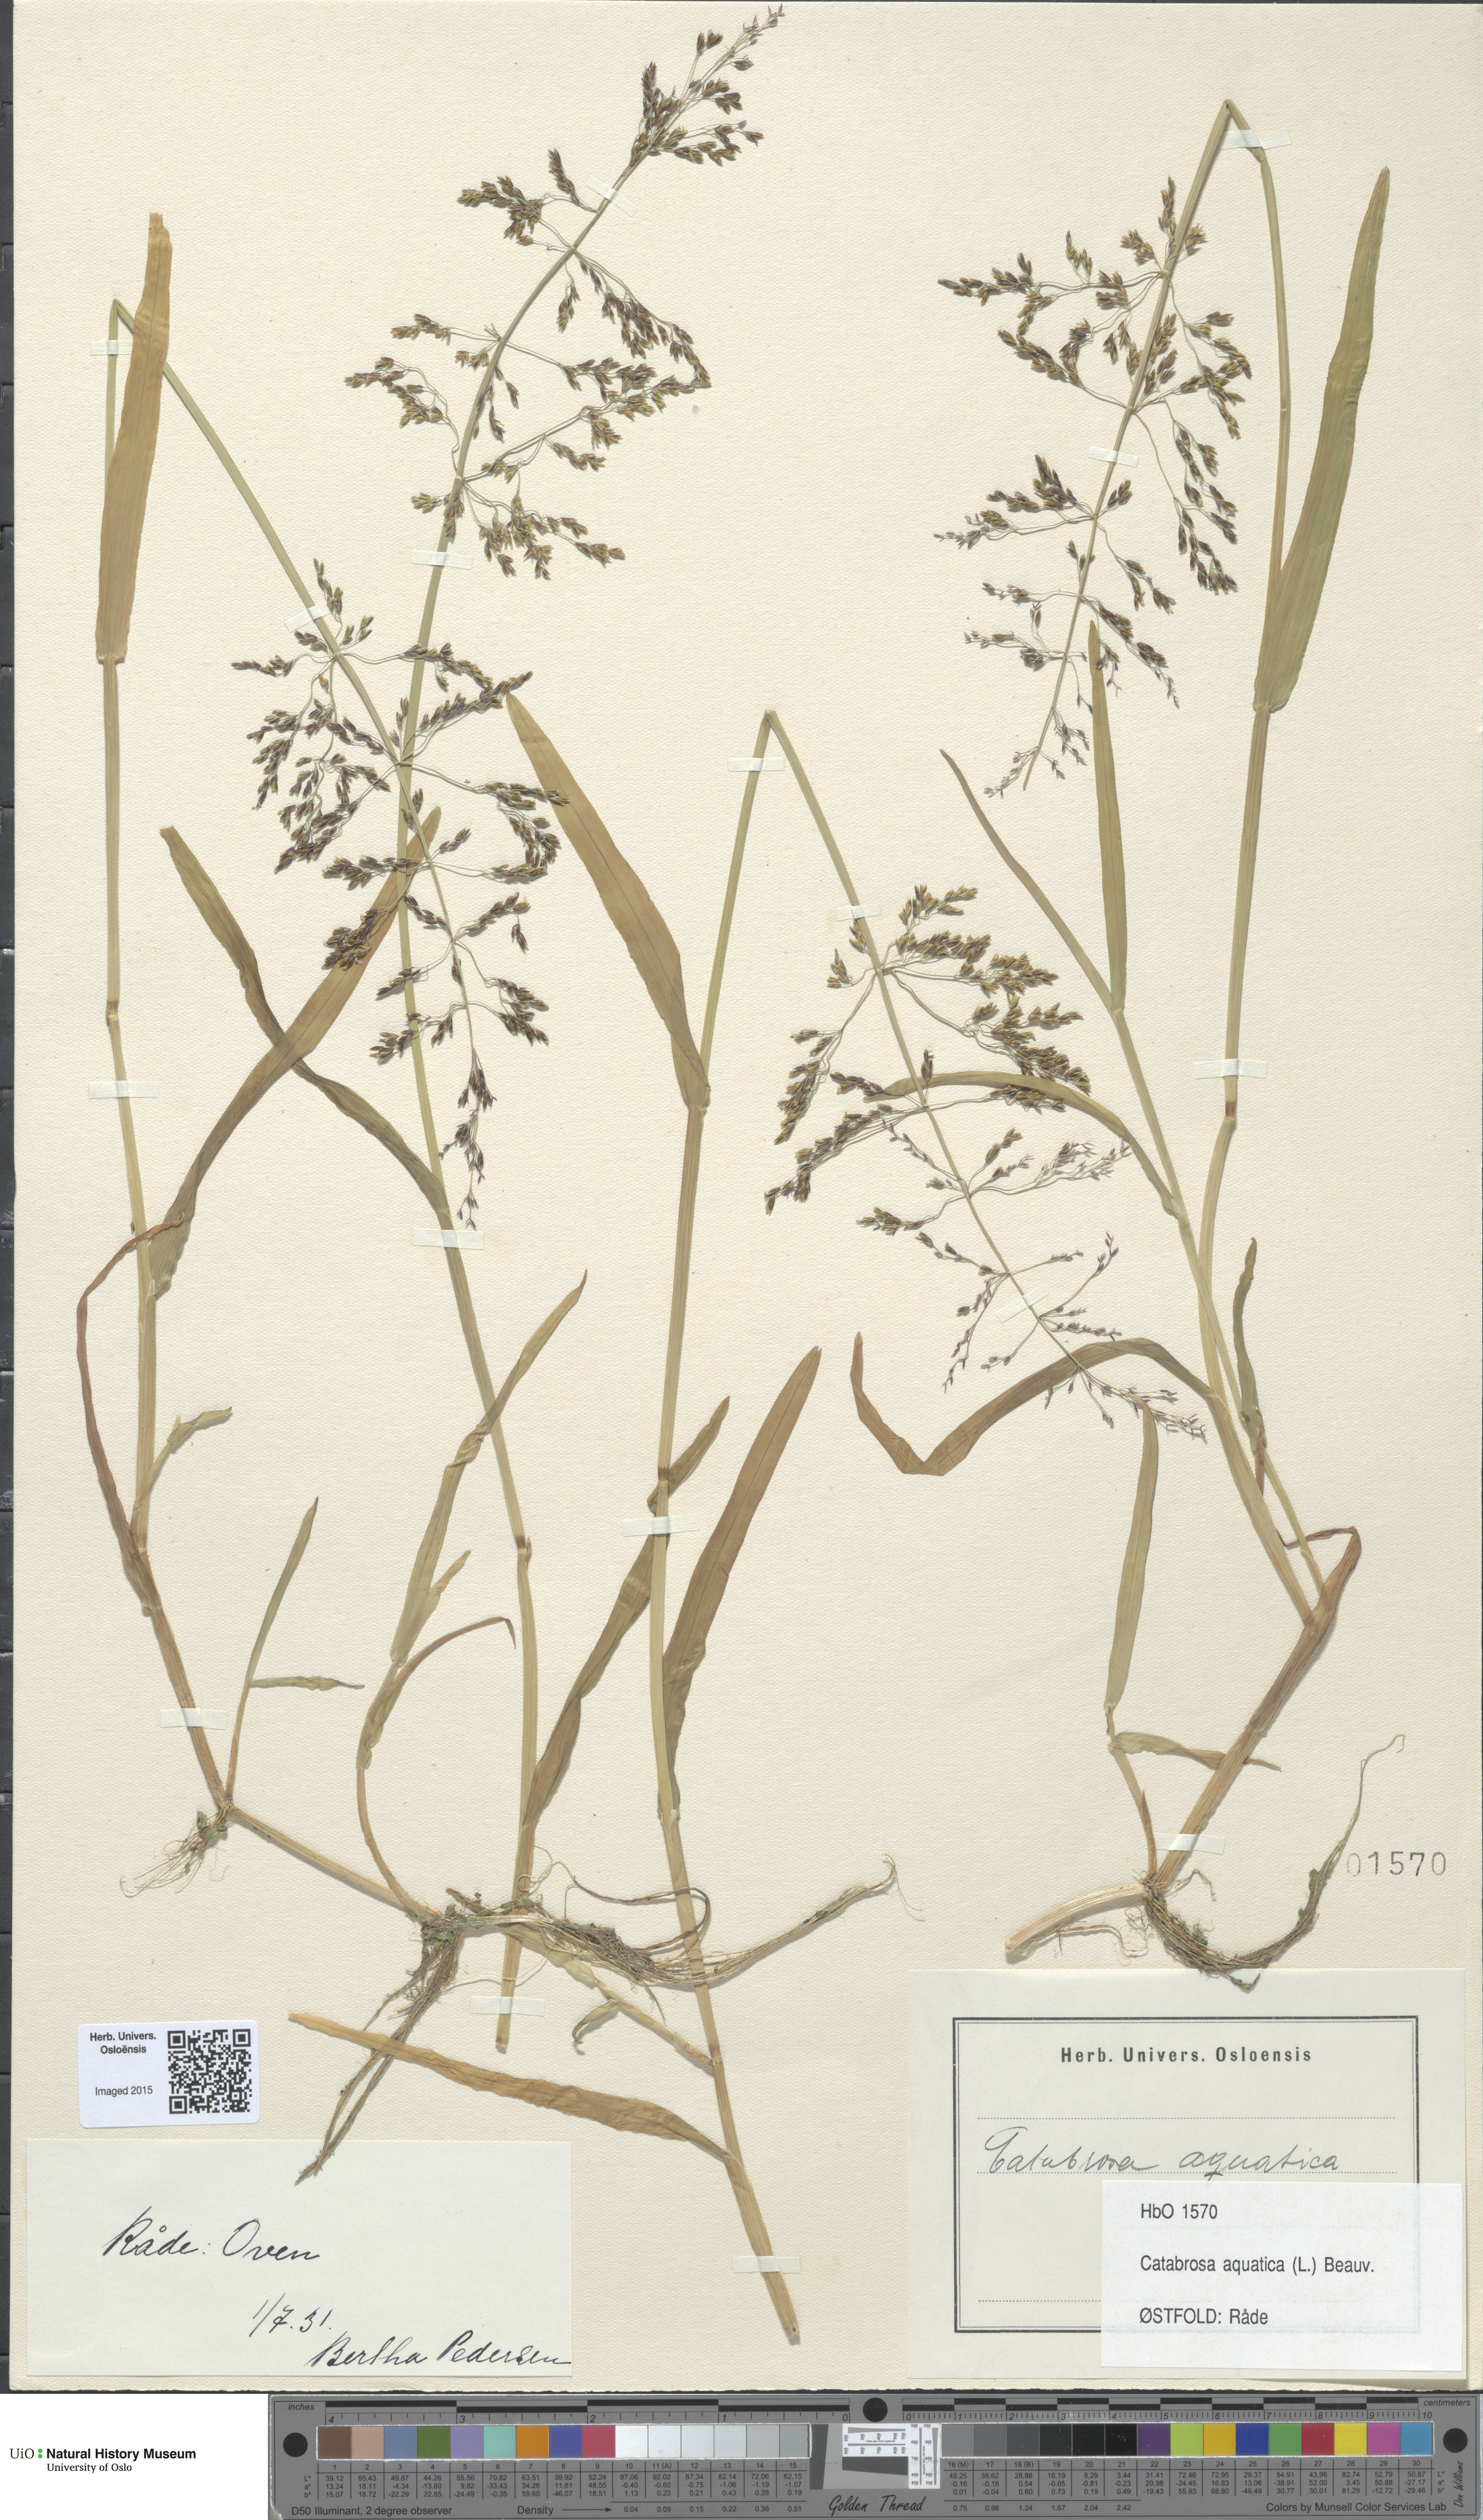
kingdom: Plantae
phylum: Tracheophyta
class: Liliopsida
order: Poales
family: Poaceae
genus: Catabrosa
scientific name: Catabrosa aquatica
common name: Whorl-grass
